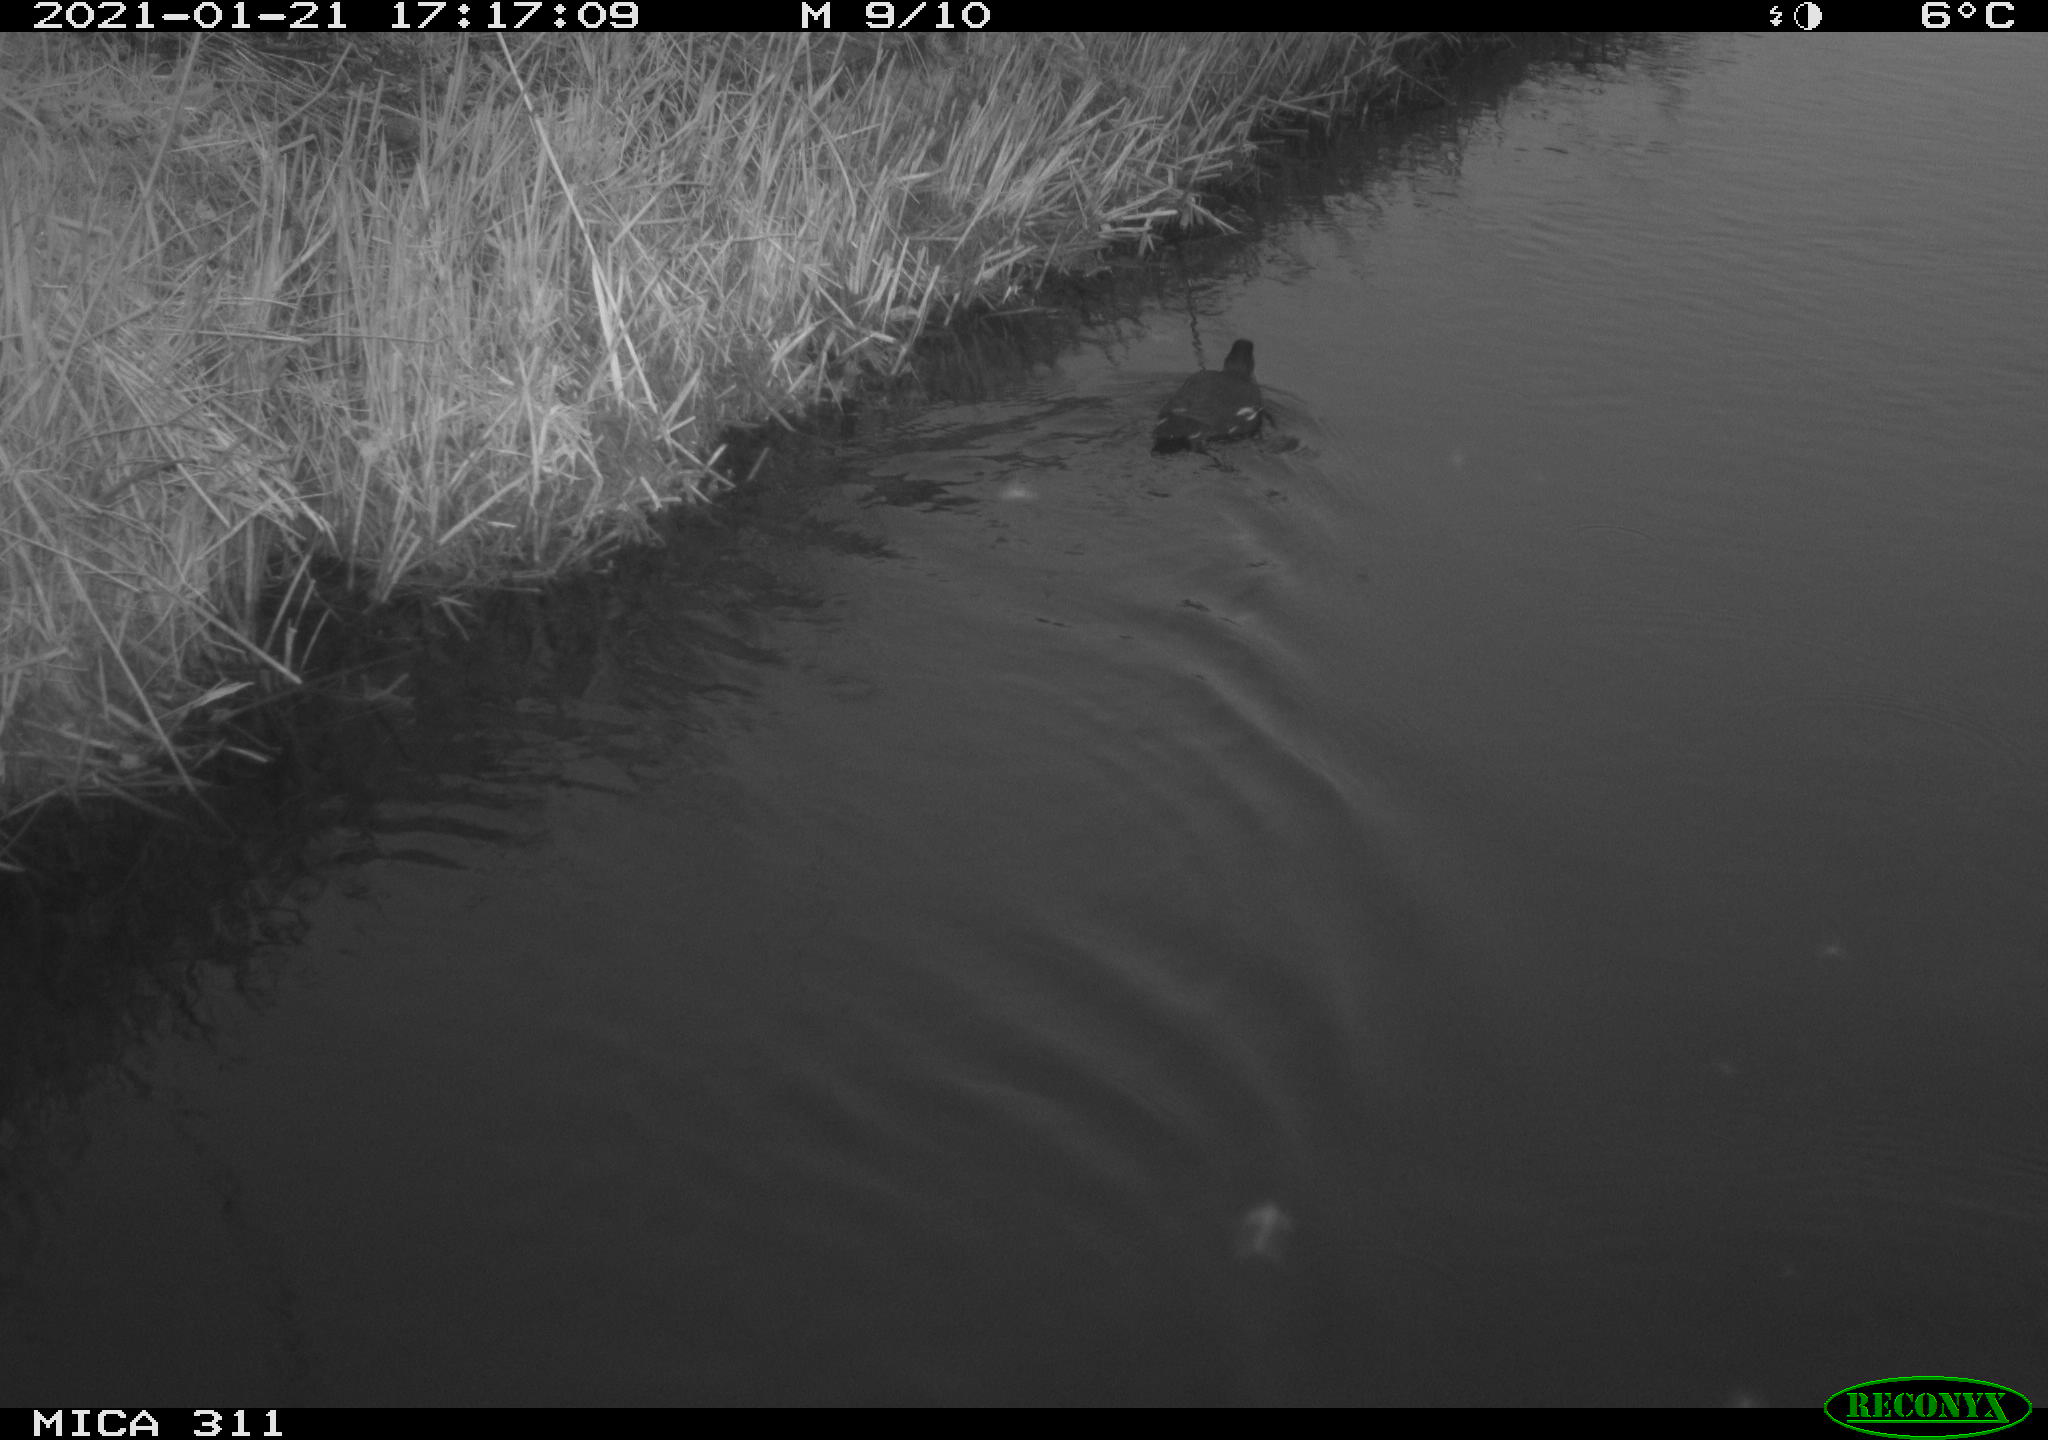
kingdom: Animalia
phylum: Chordata
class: Aves
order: Gruiformes
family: Rallidae
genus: Gallinula
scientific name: Gallinula chloropus
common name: Common moorhen
